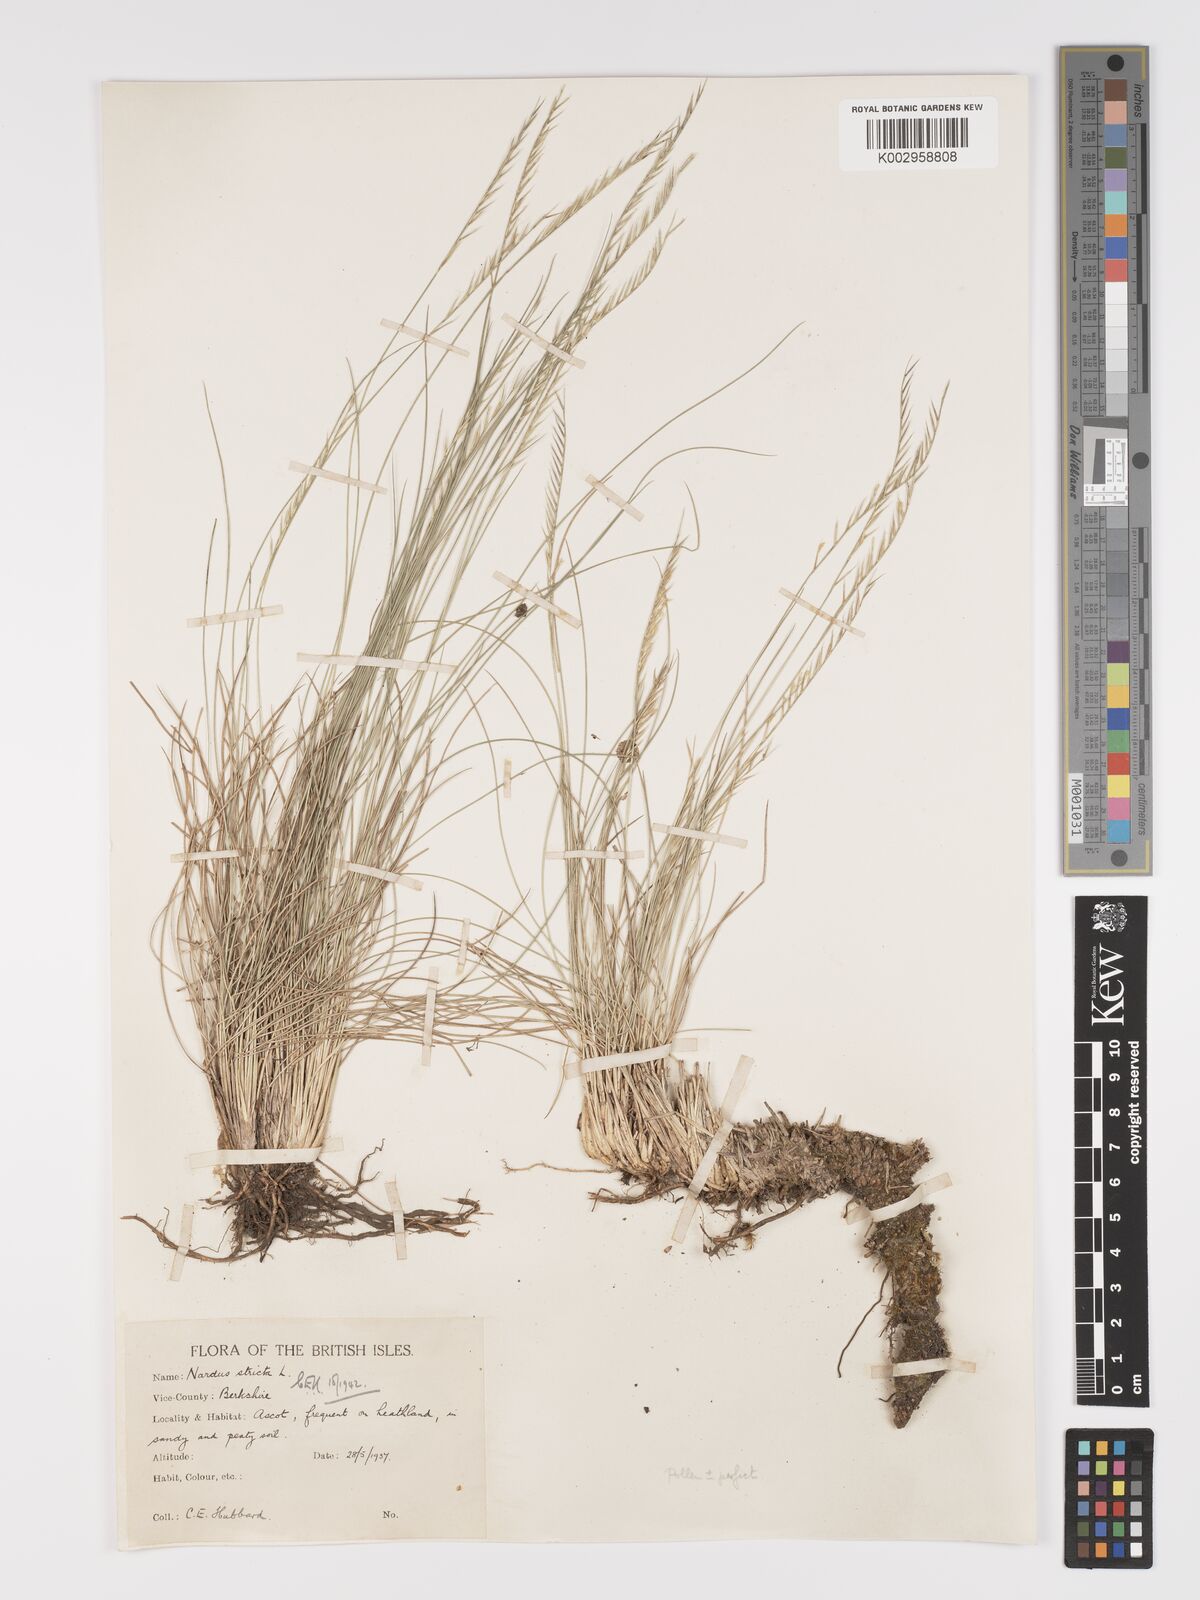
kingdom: Plantae
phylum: Tracheophyta
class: Liliopsida
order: Poales
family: Poaceae
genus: Nardus
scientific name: Nardus stricta
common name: Mat-grass
